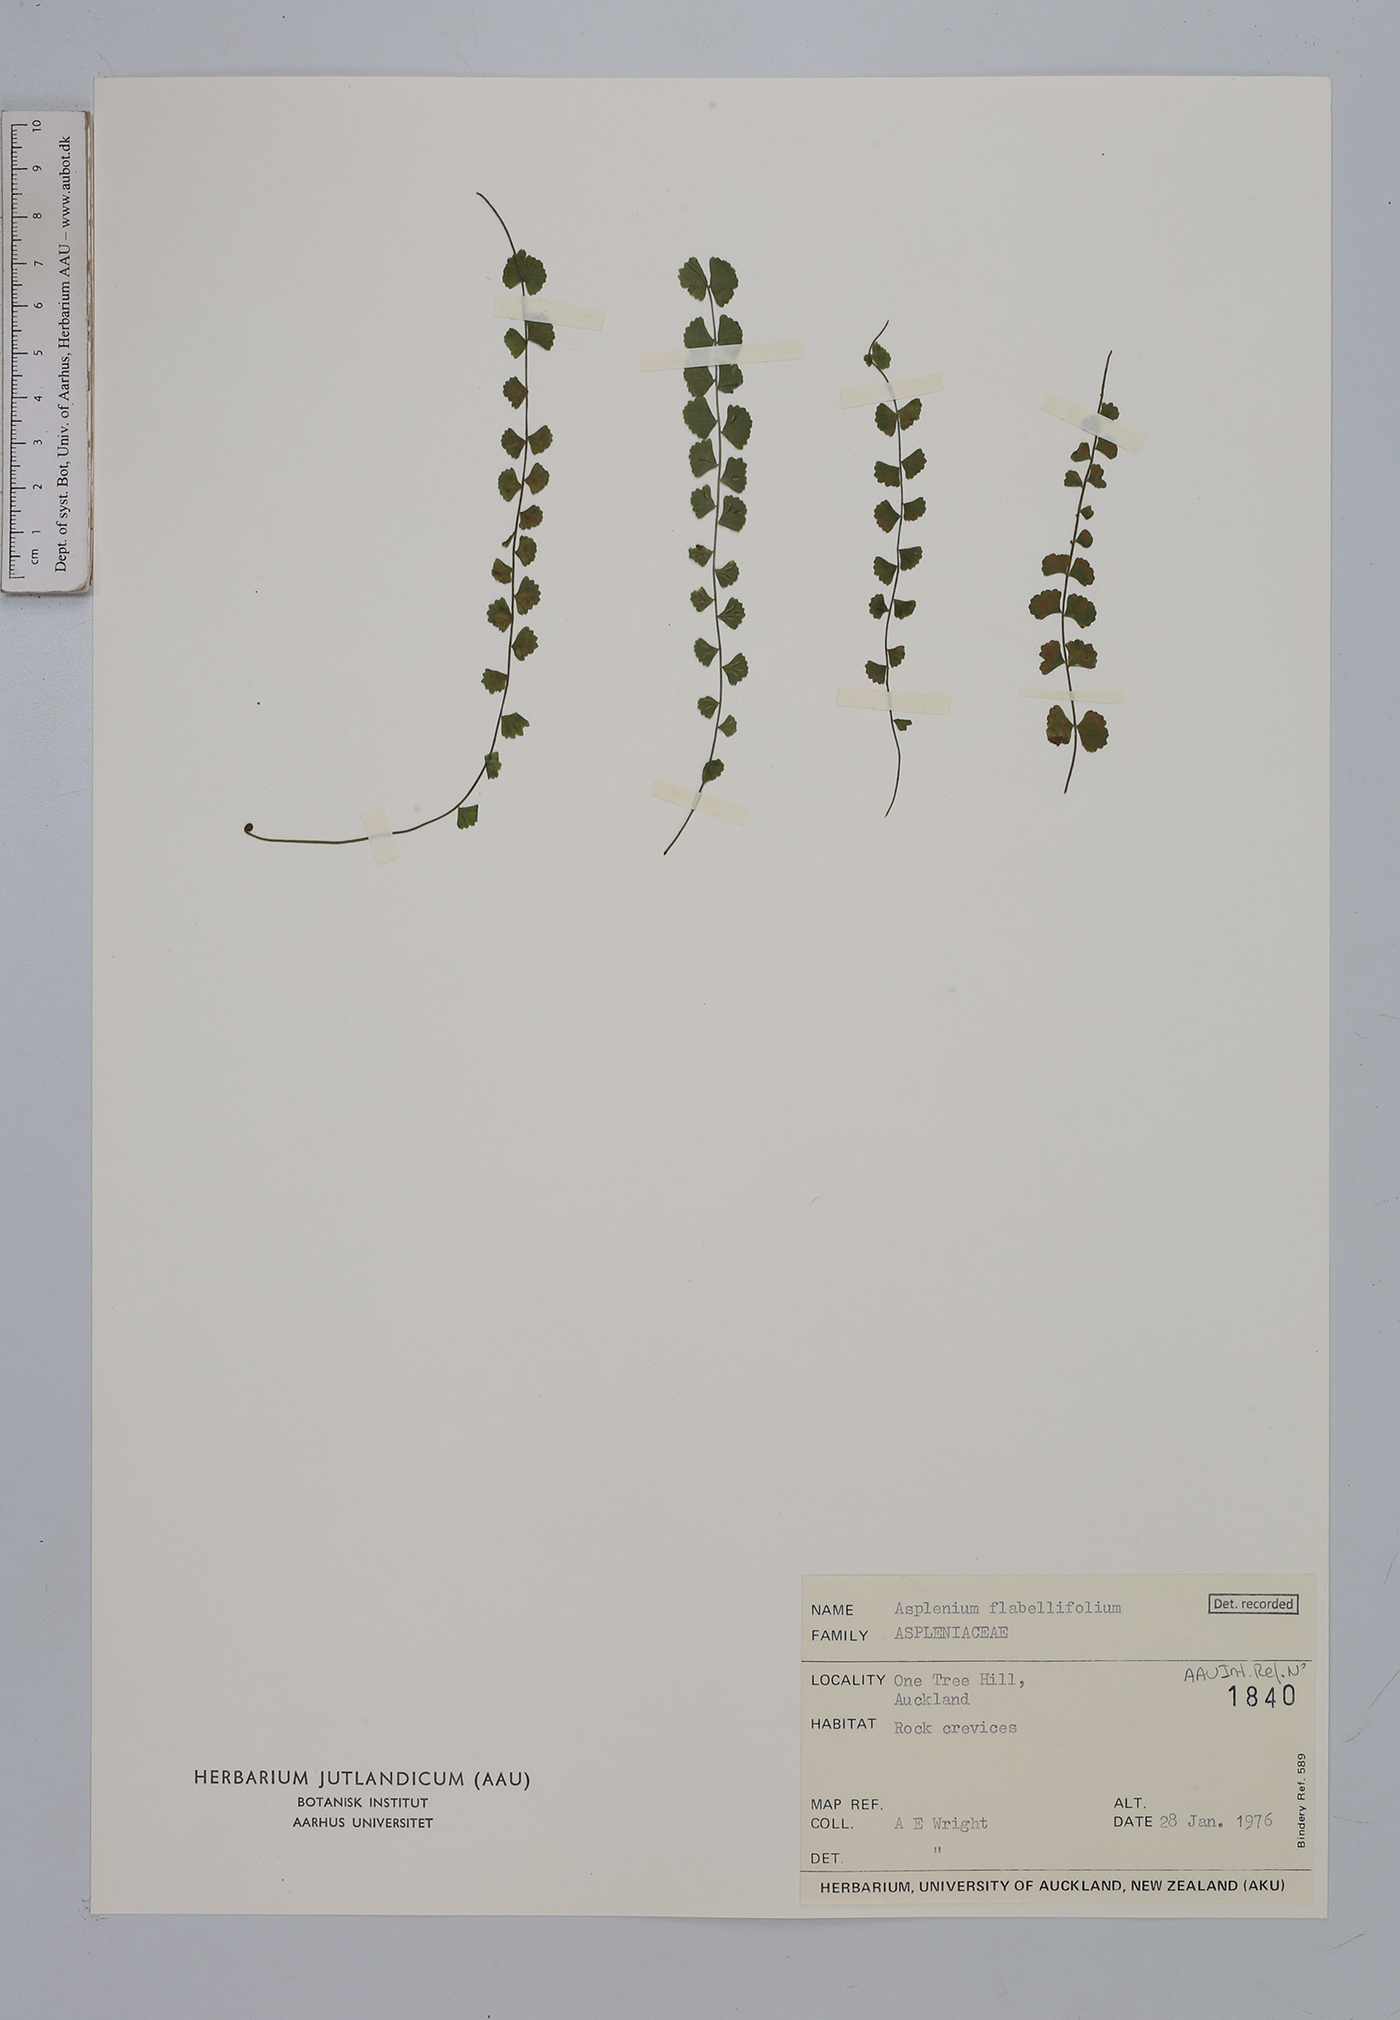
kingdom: Plantae
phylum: Tracheophyta
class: Polypodiopsida
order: Polypodiales
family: Aspleniaceae
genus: Asplenium
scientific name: Asplenium flabellifolium
